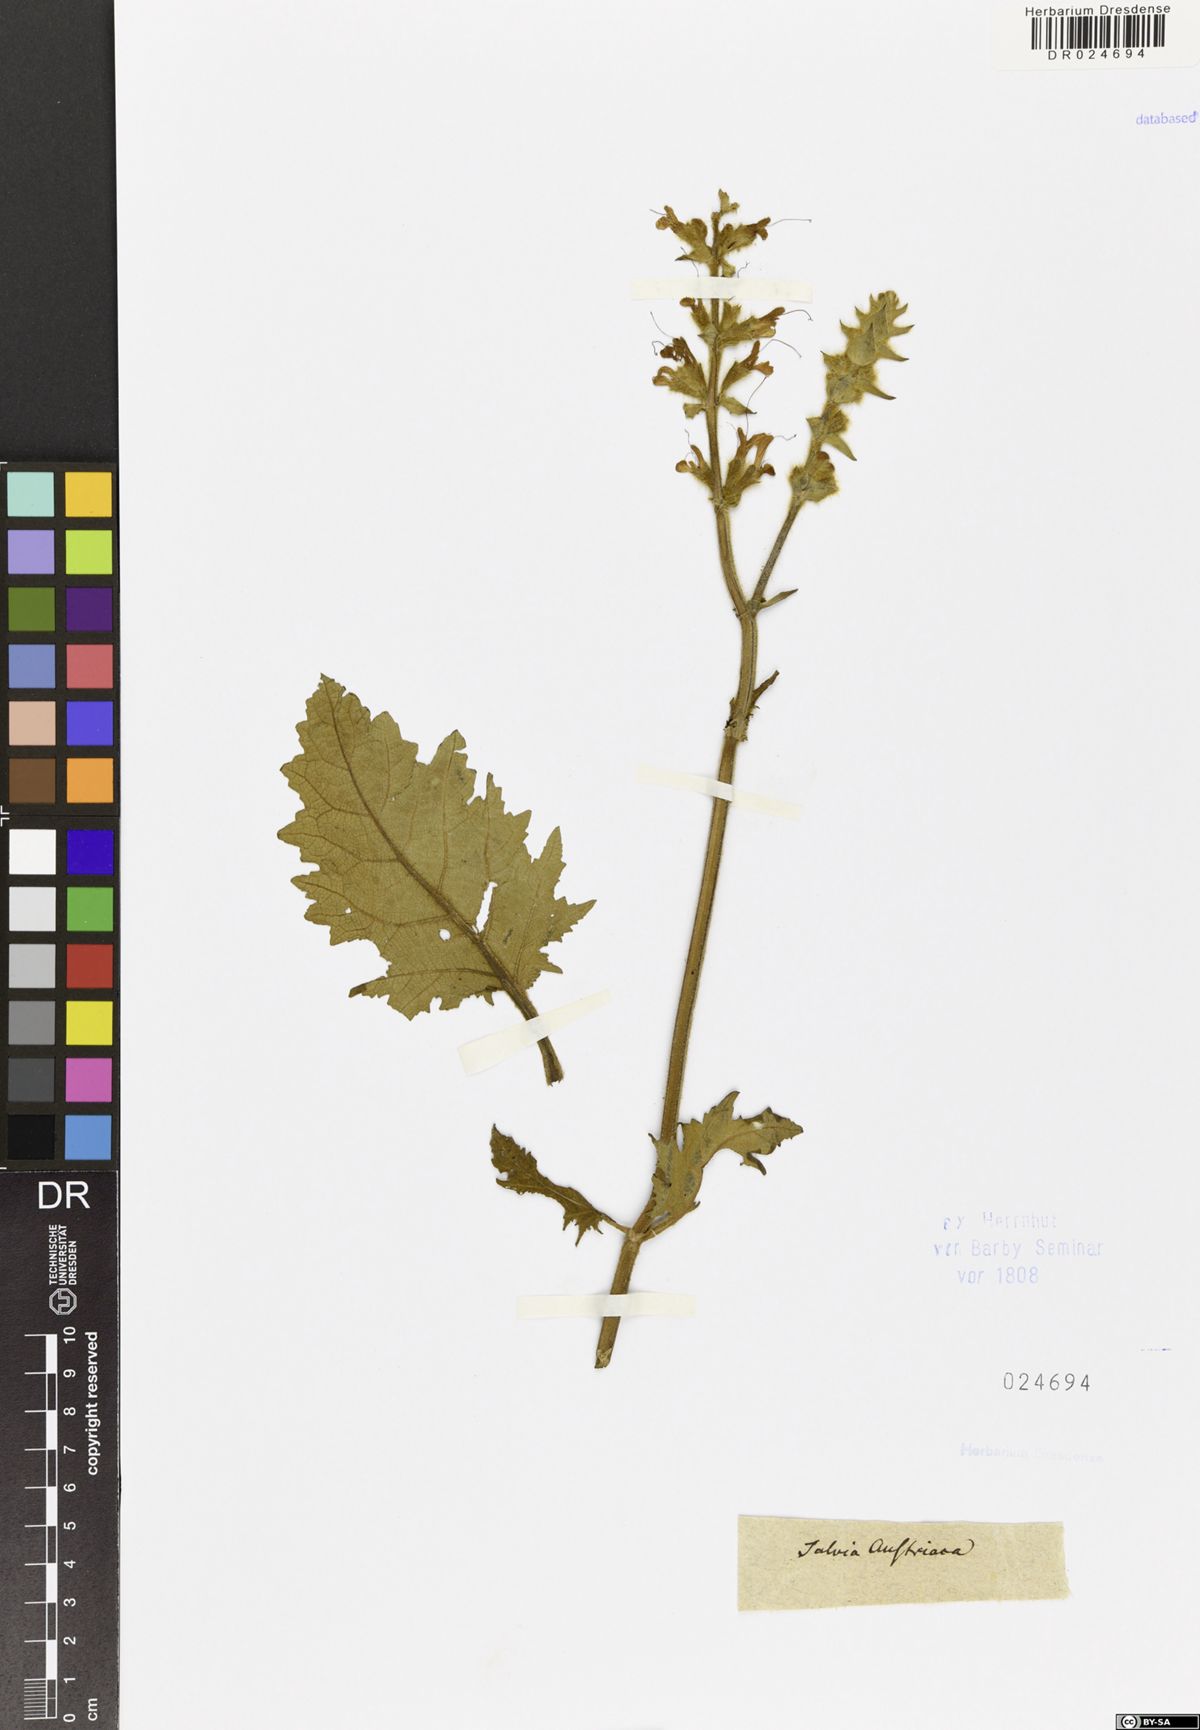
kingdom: Plantae
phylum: Tracheophyta
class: Magnoliopsida
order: Lamiales
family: Lamiaceae
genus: Salvia
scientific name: Salvia austriaca
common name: Austrian sage
